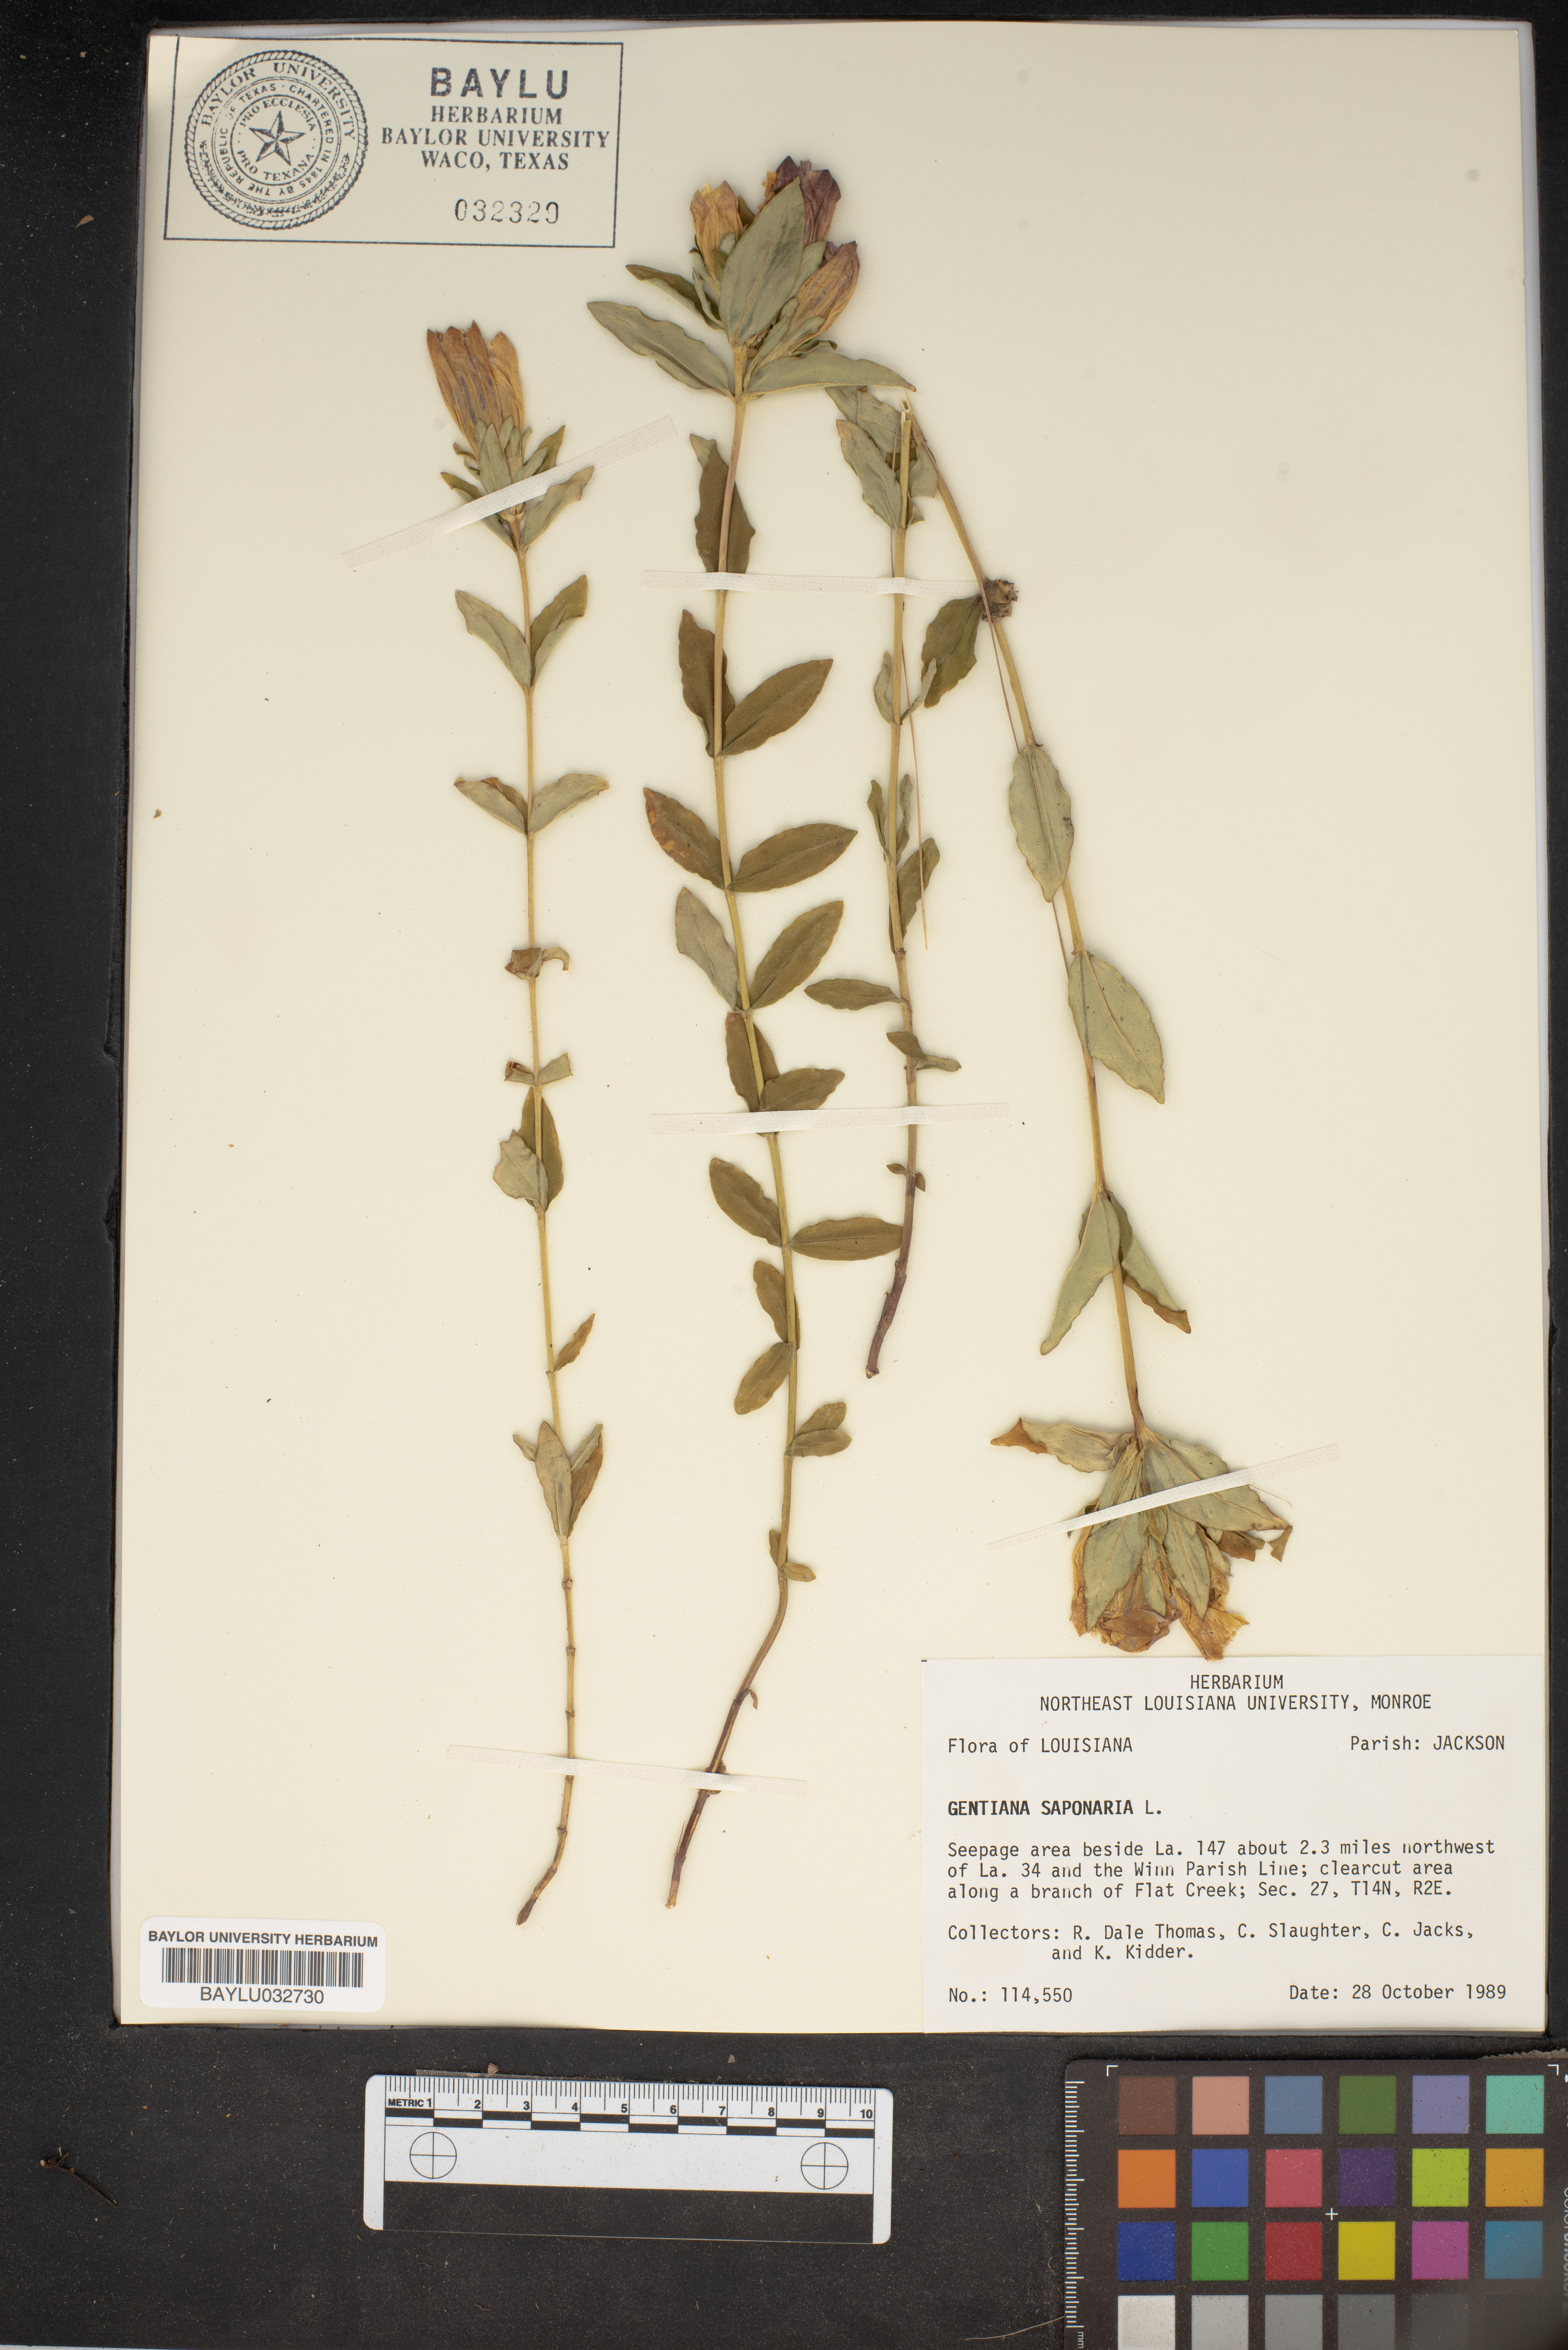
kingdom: Plantae
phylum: Tracheophyta
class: Magnoliopsida
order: Gentianales
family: Gentianaceae
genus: Gentiana
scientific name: Gentiana saponaria
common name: Soapwort gentian
